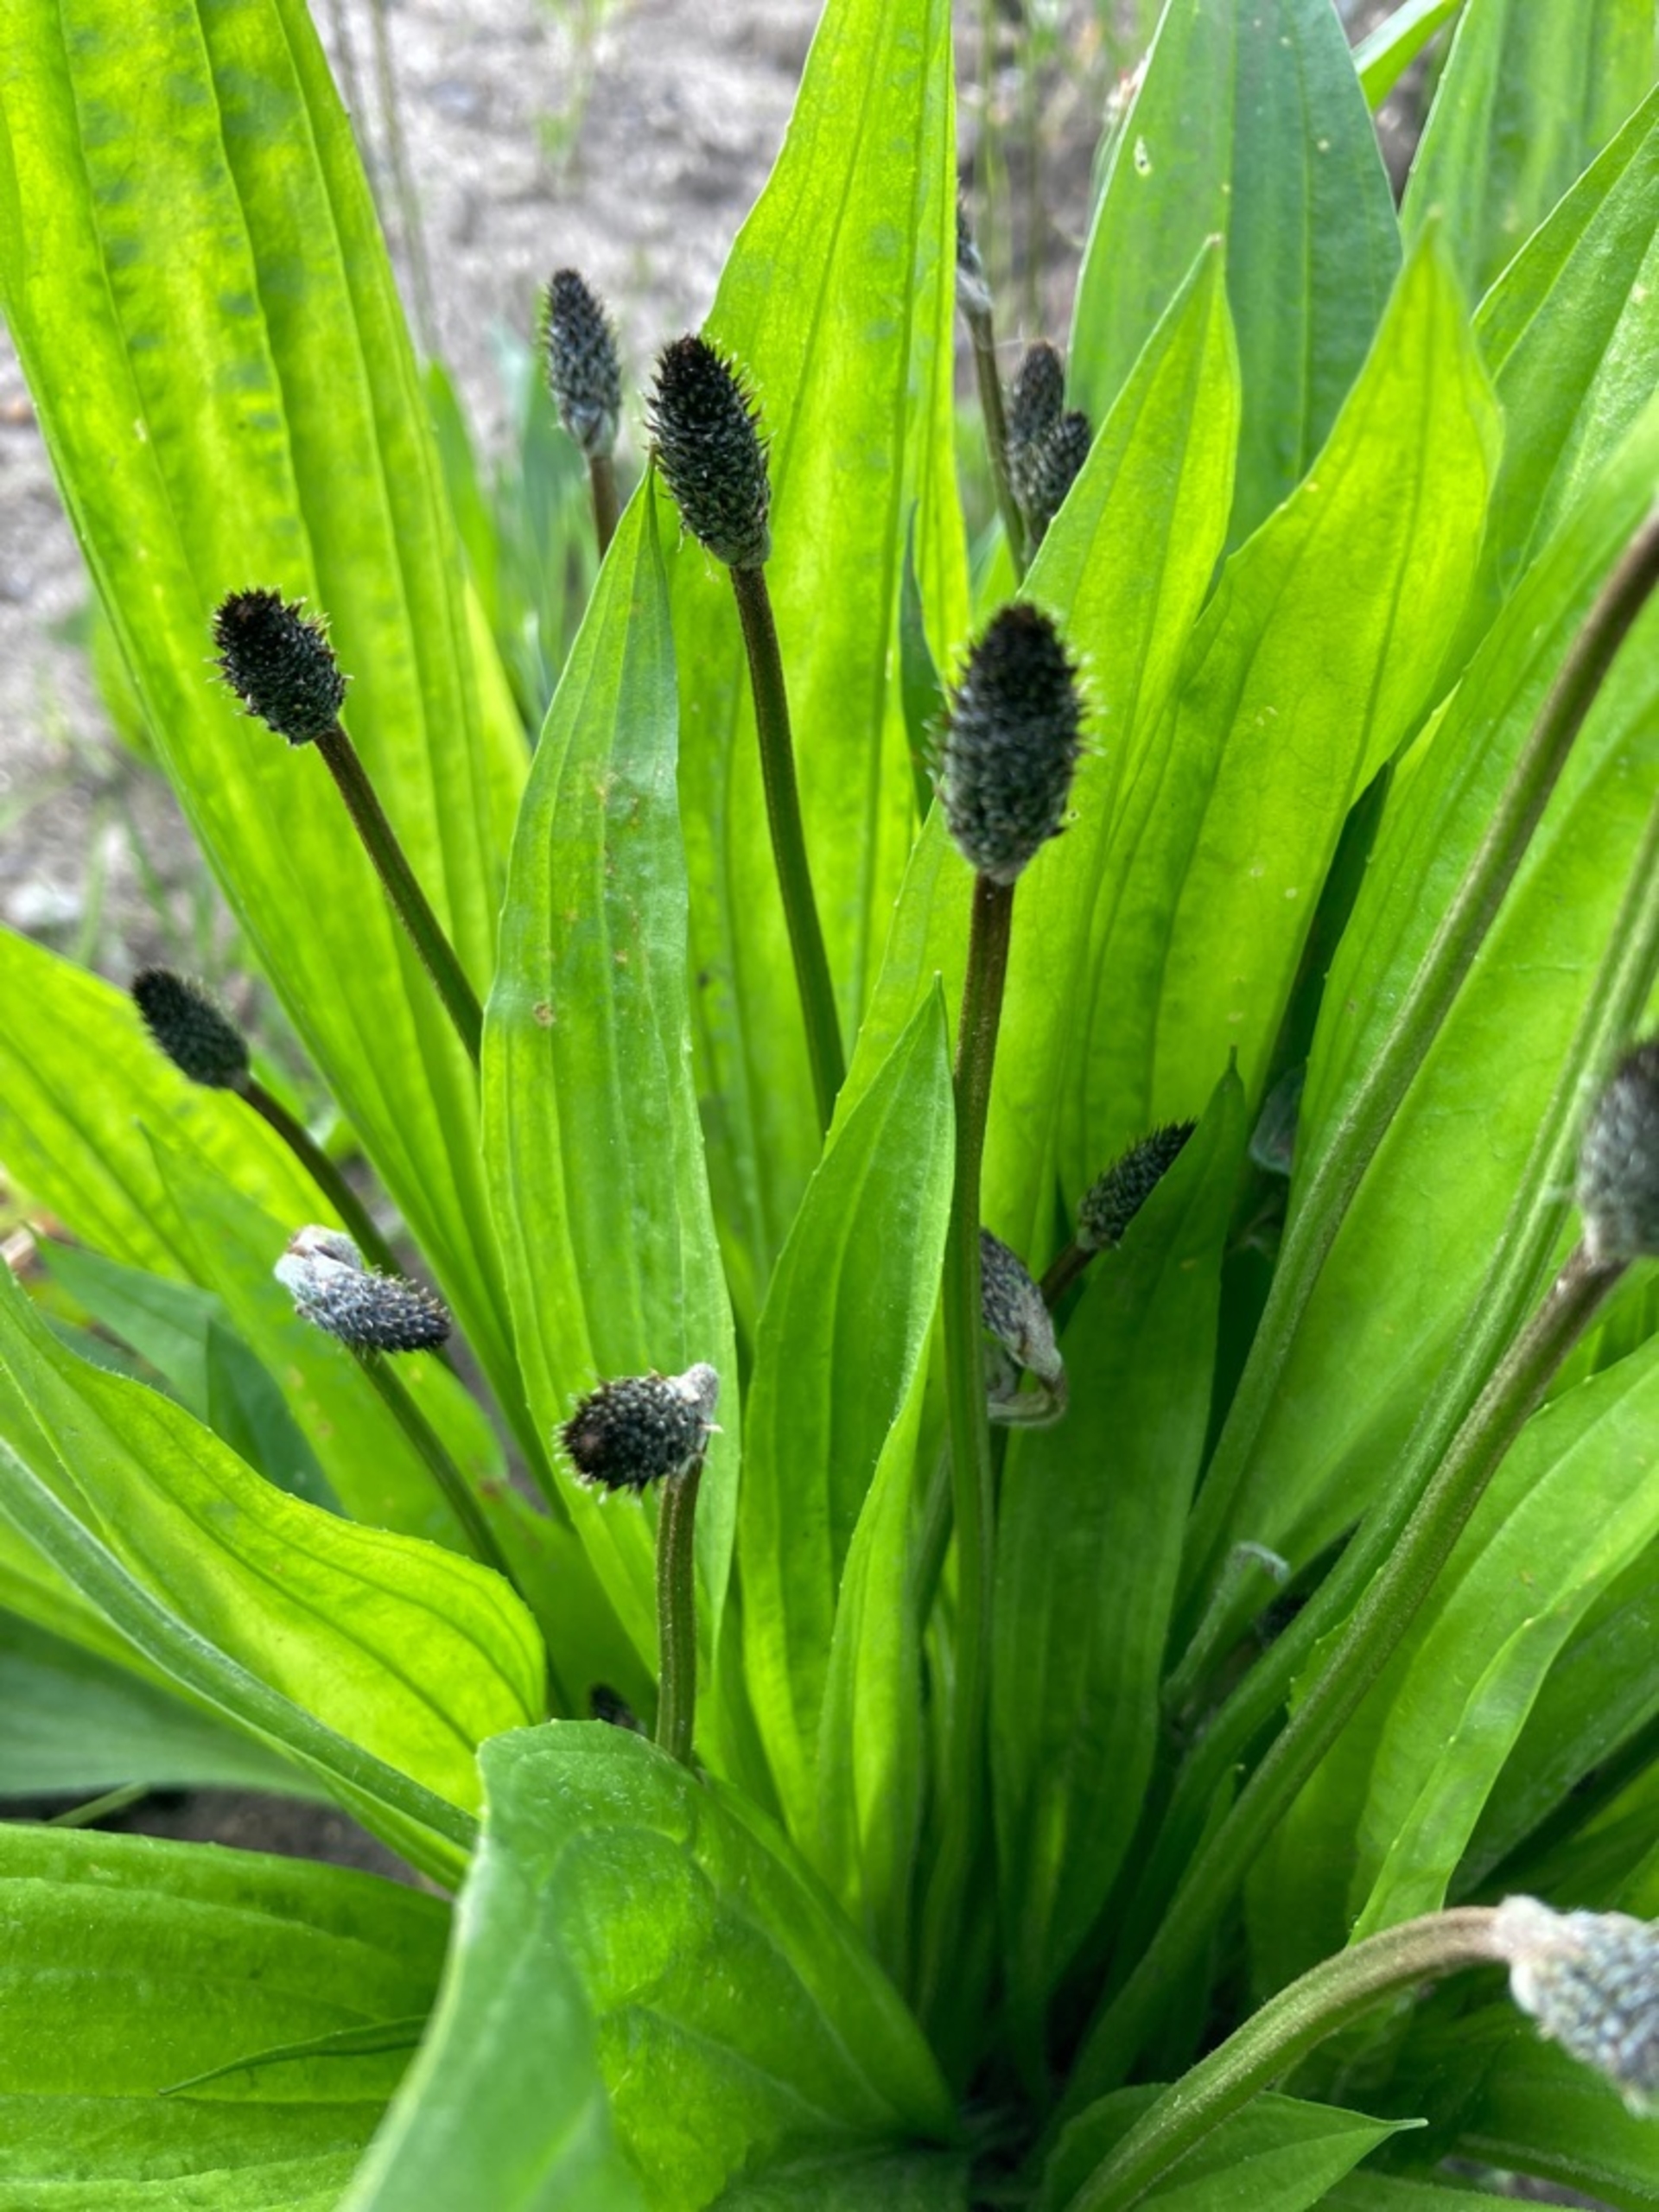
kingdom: Plantae
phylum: Tracheophyta
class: Magnoliopsida
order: Lamiales
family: Plantaginaceae
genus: Plantago
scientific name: Plantago lanceolata
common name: Lancet-vejbred
